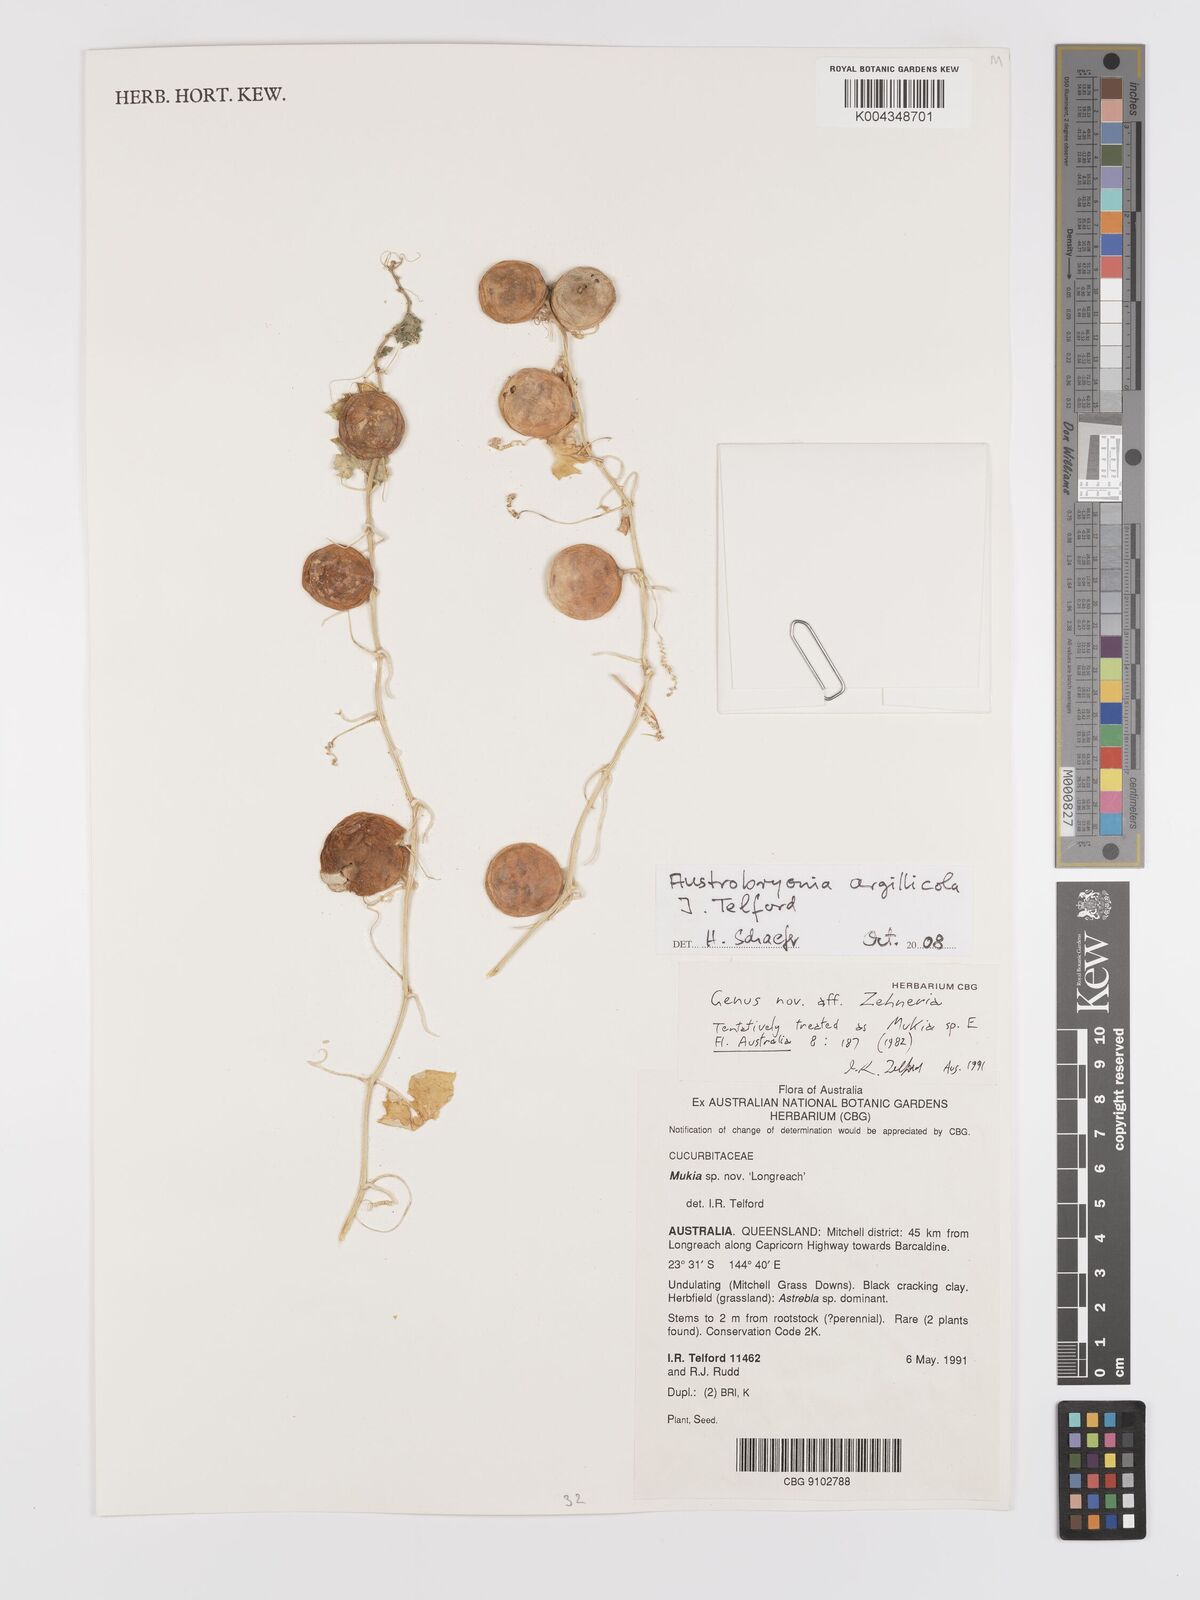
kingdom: Plantae
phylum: Tracheophyta
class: Magnoliopsida
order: Cucurbitales
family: Cucurbitaceae
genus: Austrobryonia
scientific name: Austrobryonia argillicola
